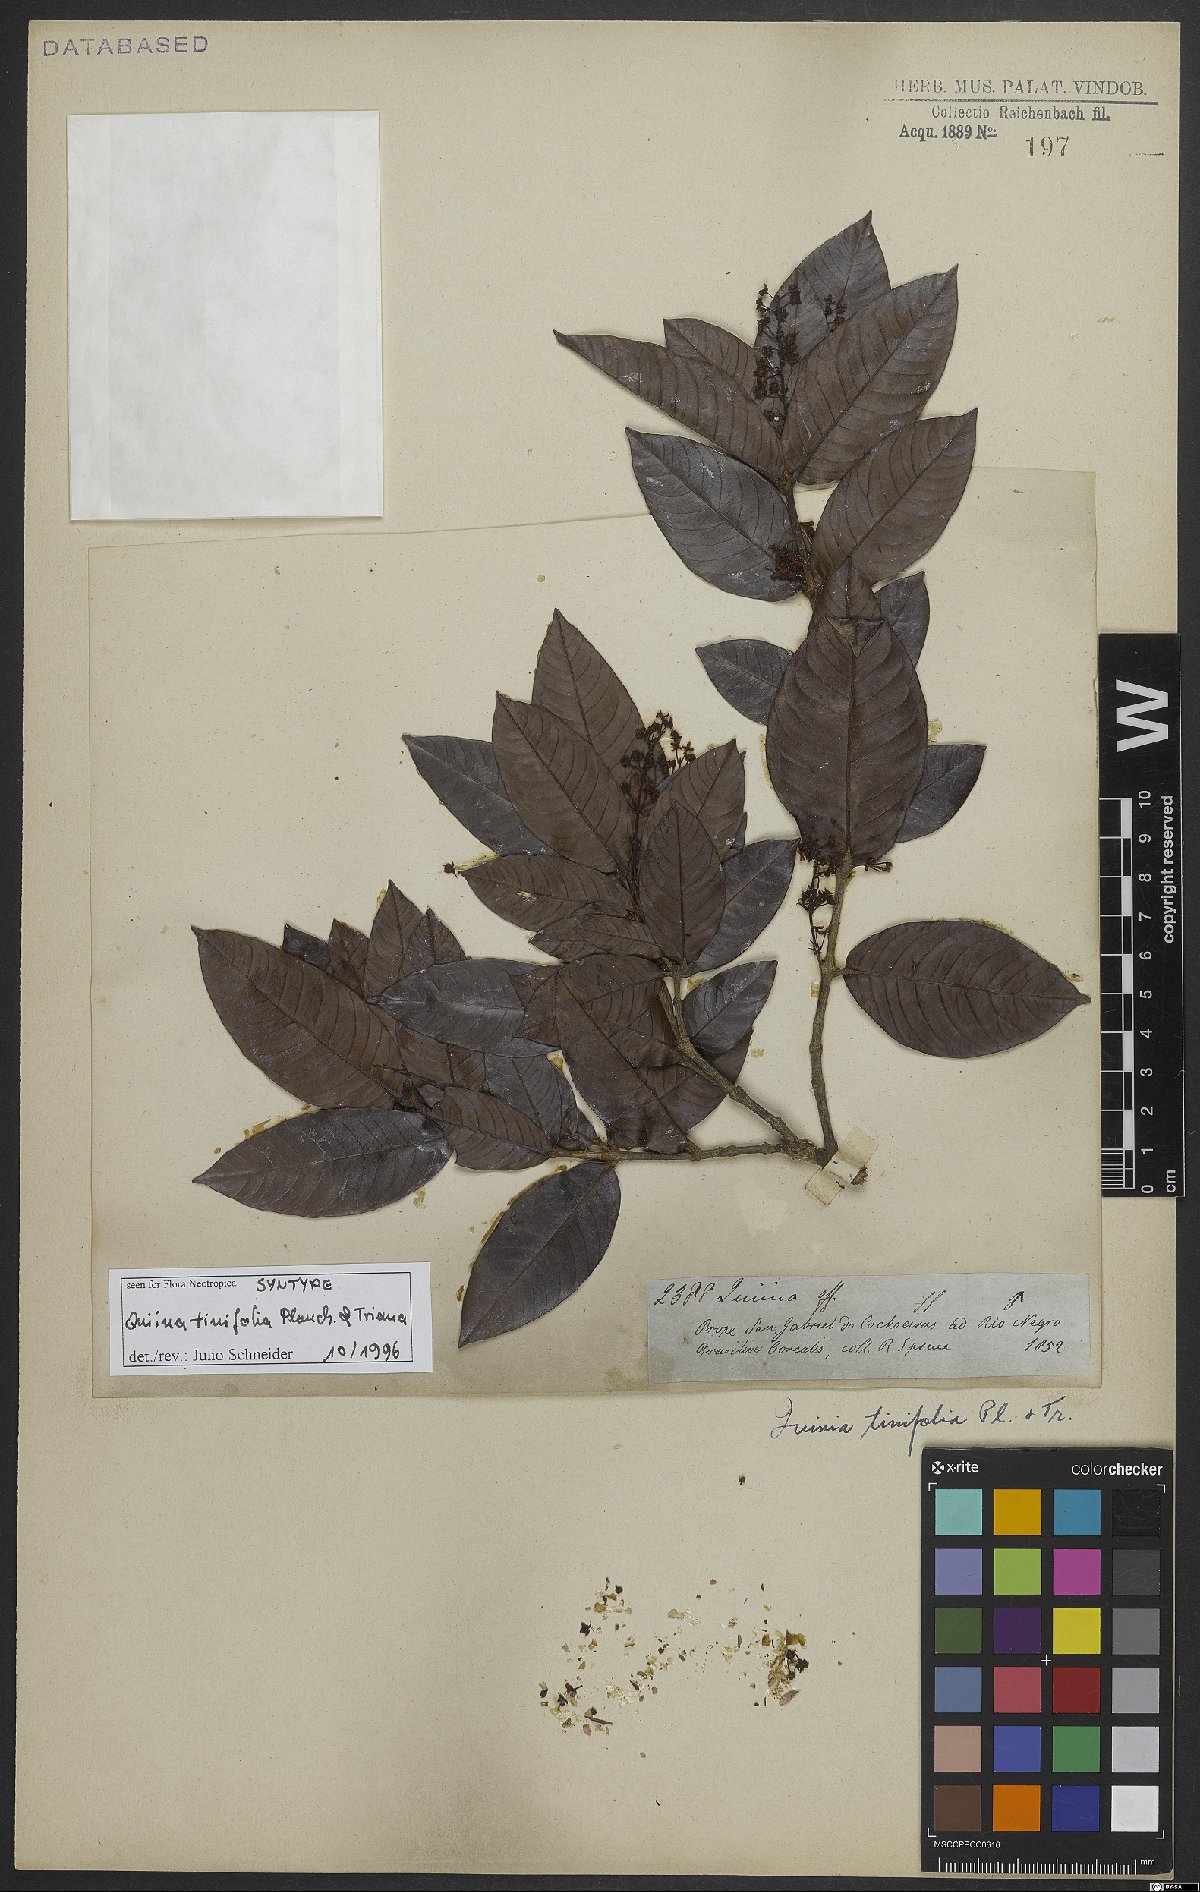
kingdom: Plantae
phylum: Tracheophyta
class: Magnoliopsida
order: Malpighiales
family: Quiinaceae
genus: Quiina
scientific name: Quiina tinifolia
